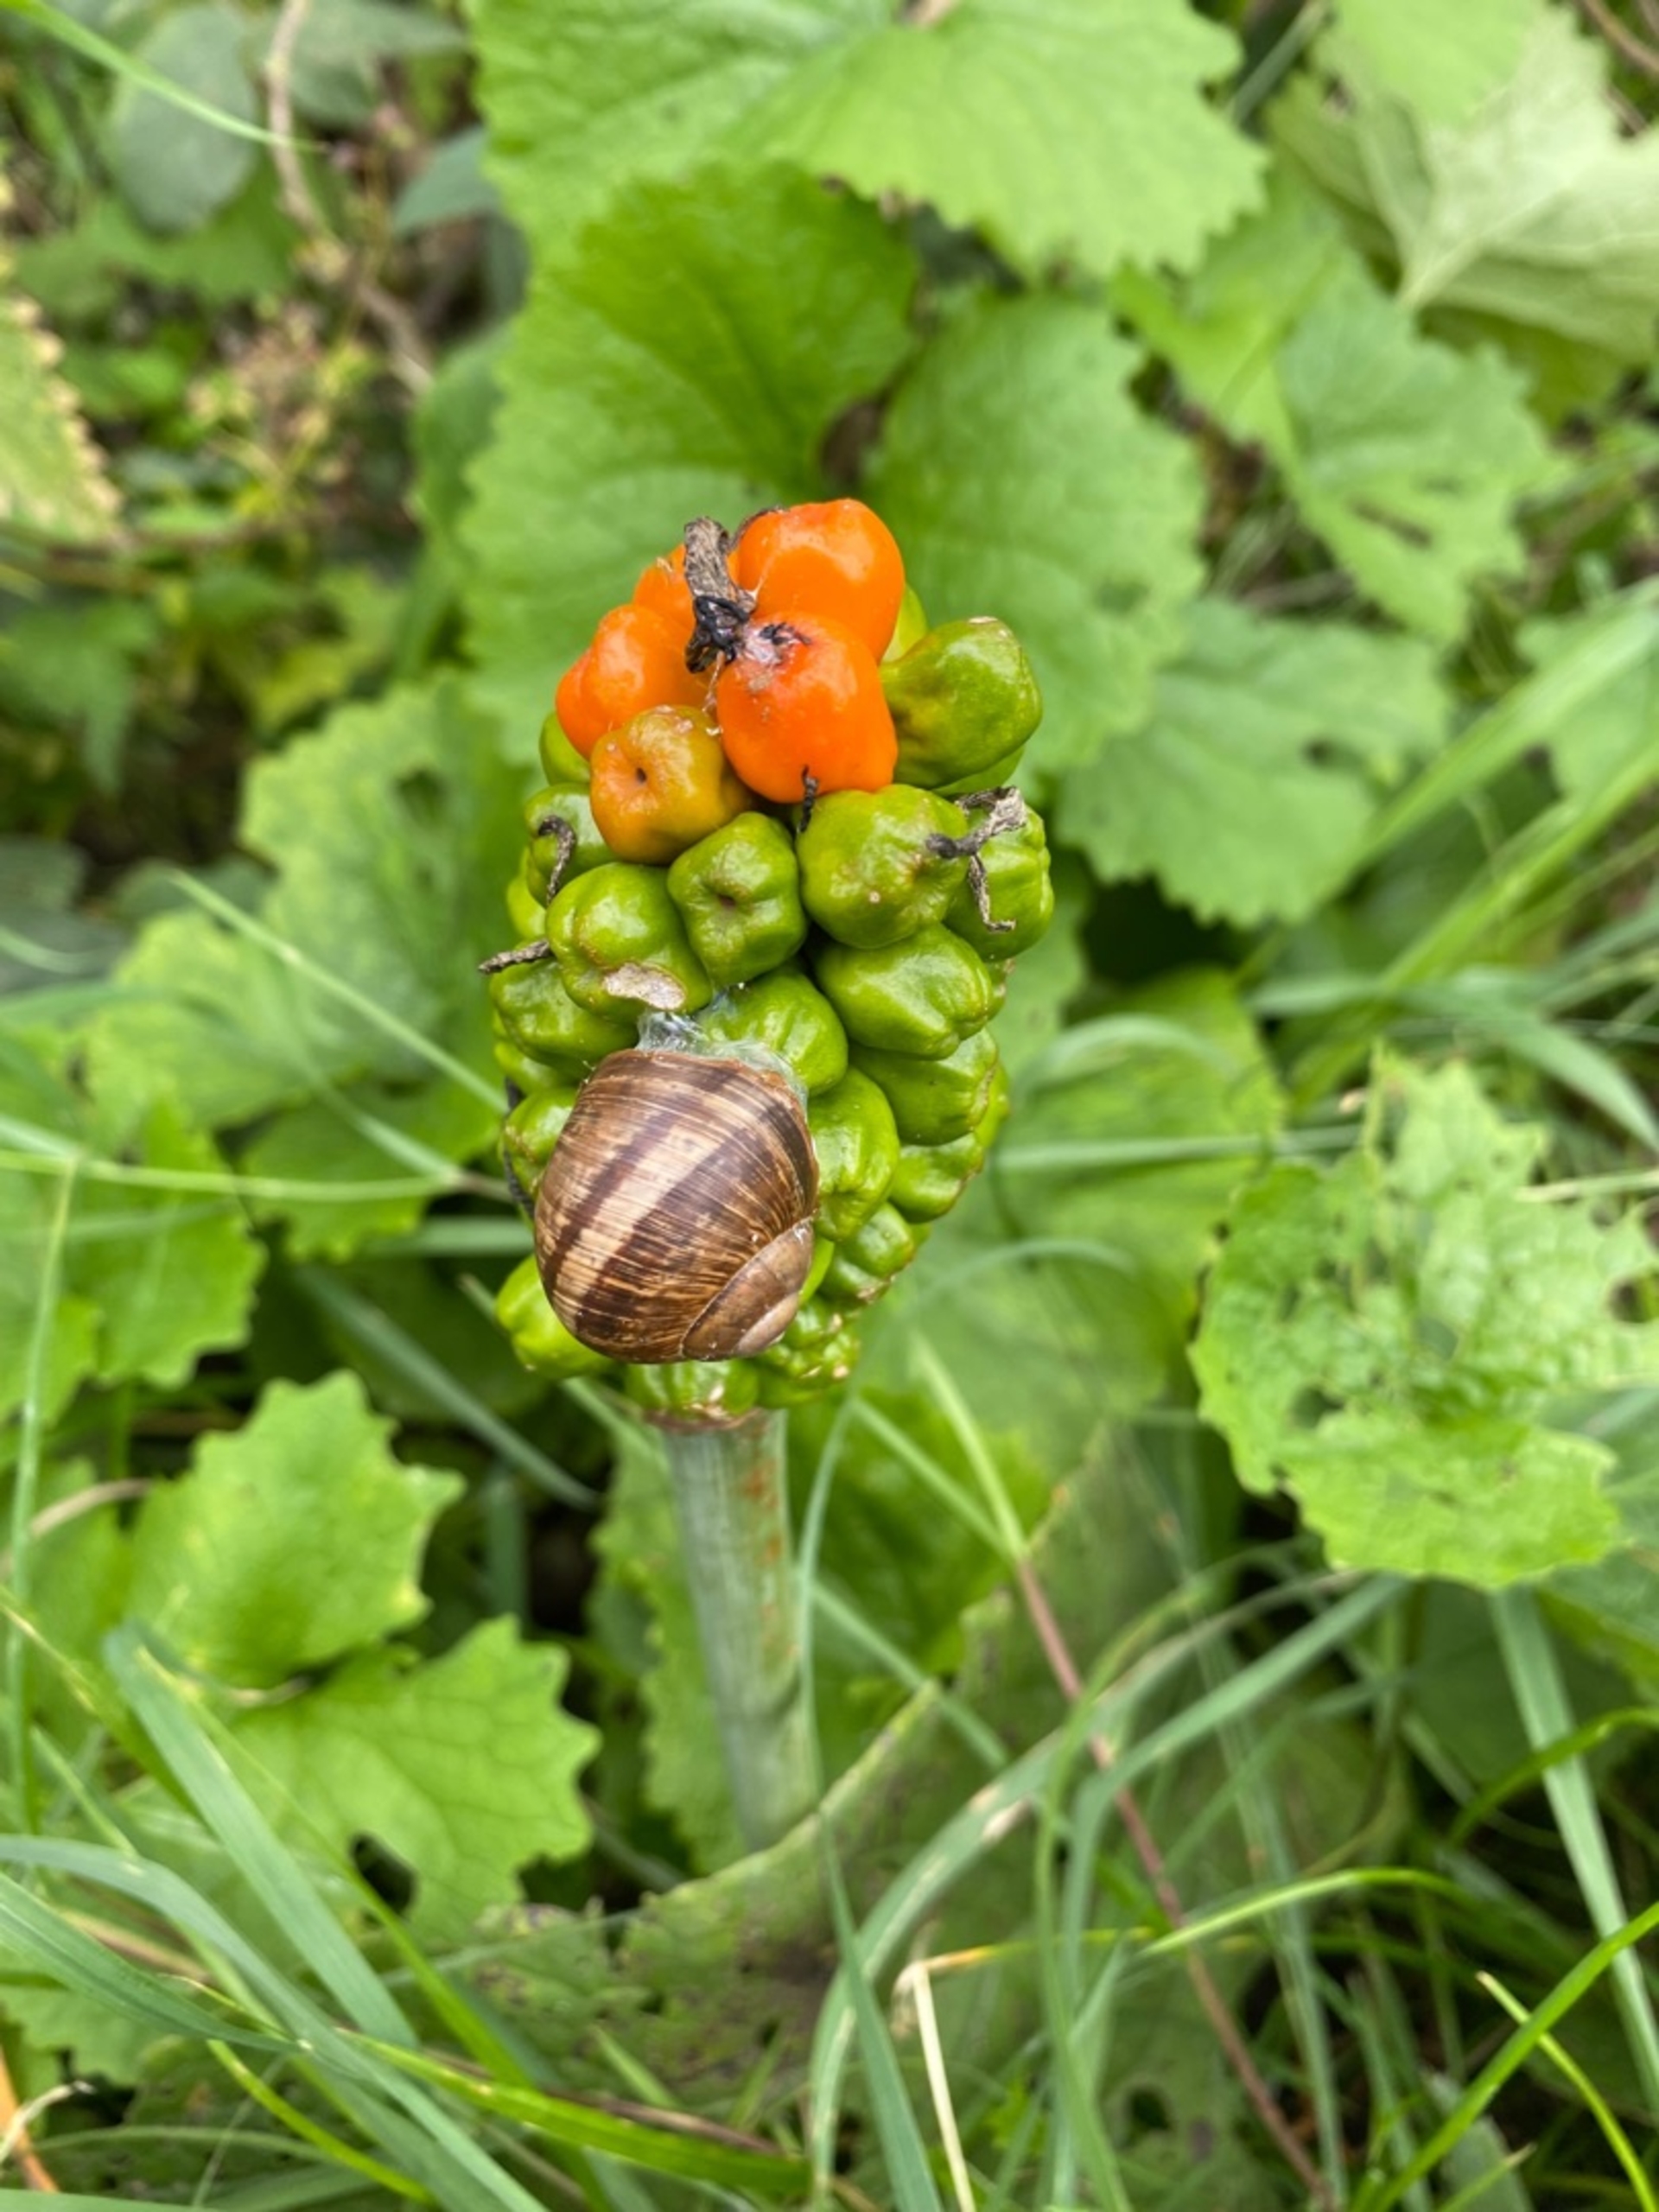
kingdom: Animalia
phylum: Mollusca
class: Gastropoda
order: Stylommatophora
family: Helicidae
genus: Helix
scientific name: Helix pomatia
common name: Vinbjergsnegl
